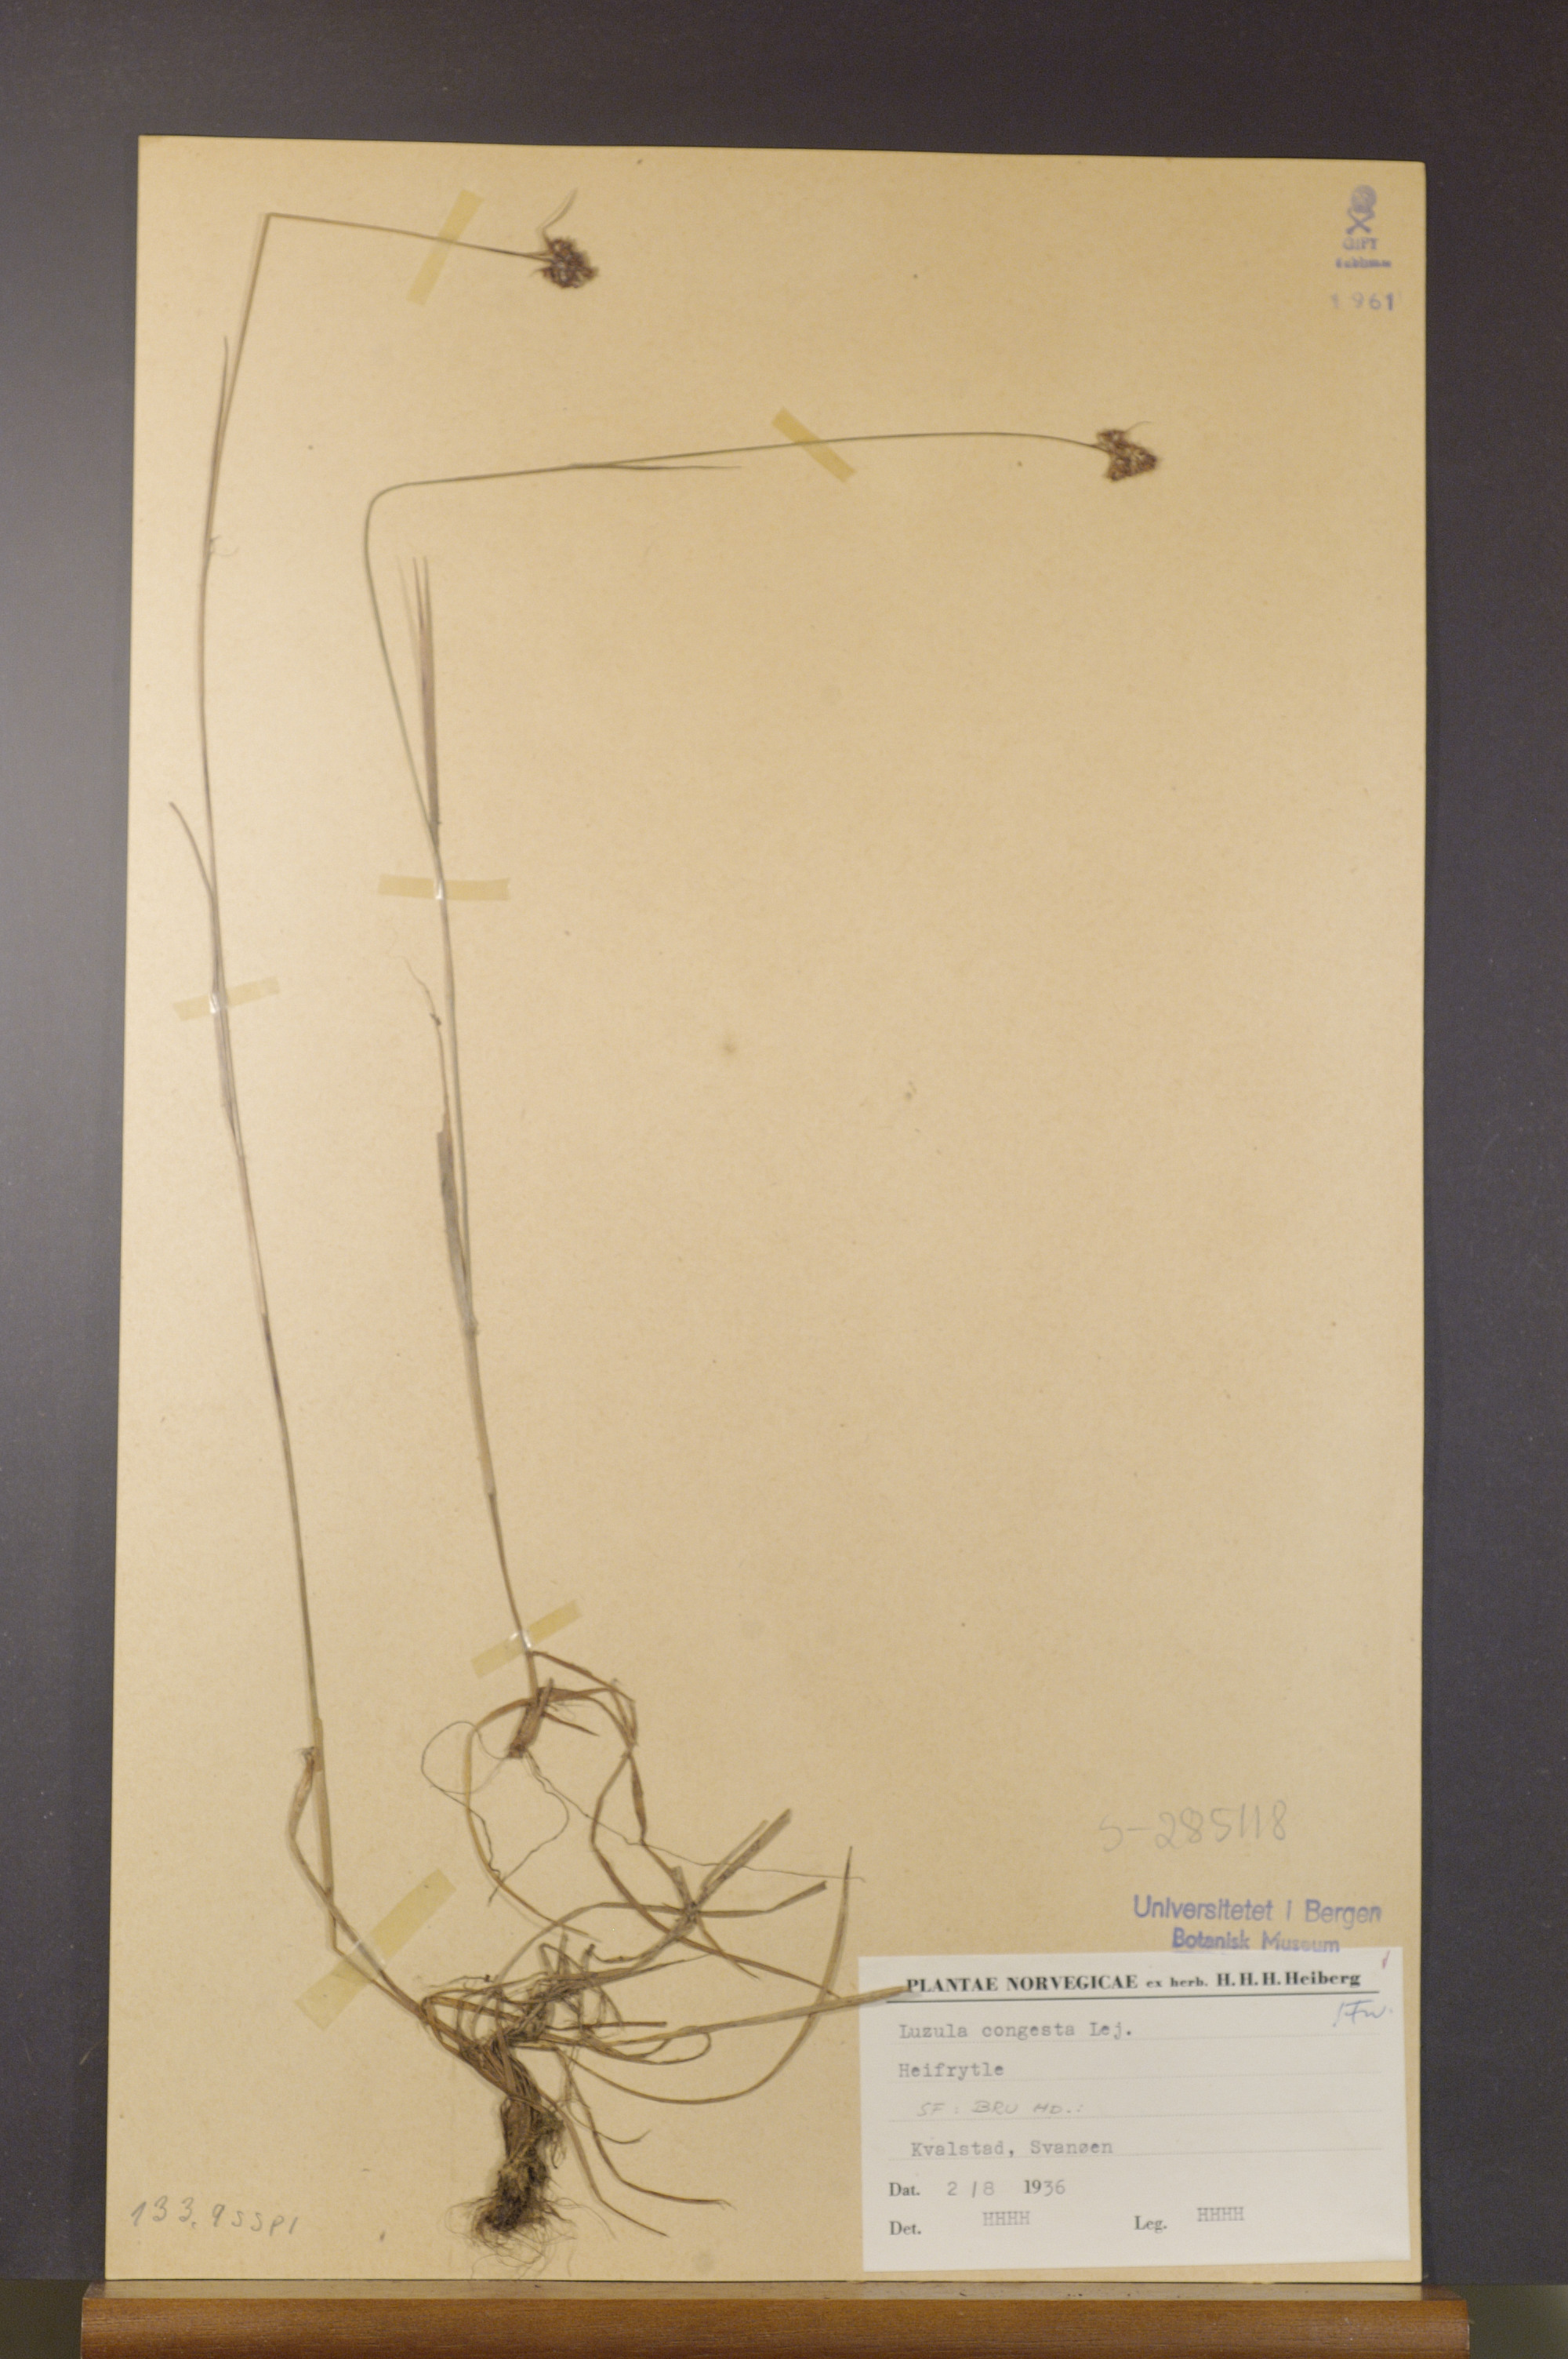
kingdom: Plantae
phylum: Tracheophyta
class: Liliopsida
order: Poales
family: Juncaceae
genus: Luzula
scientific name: Luzula congesta
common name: Heath woodrush
